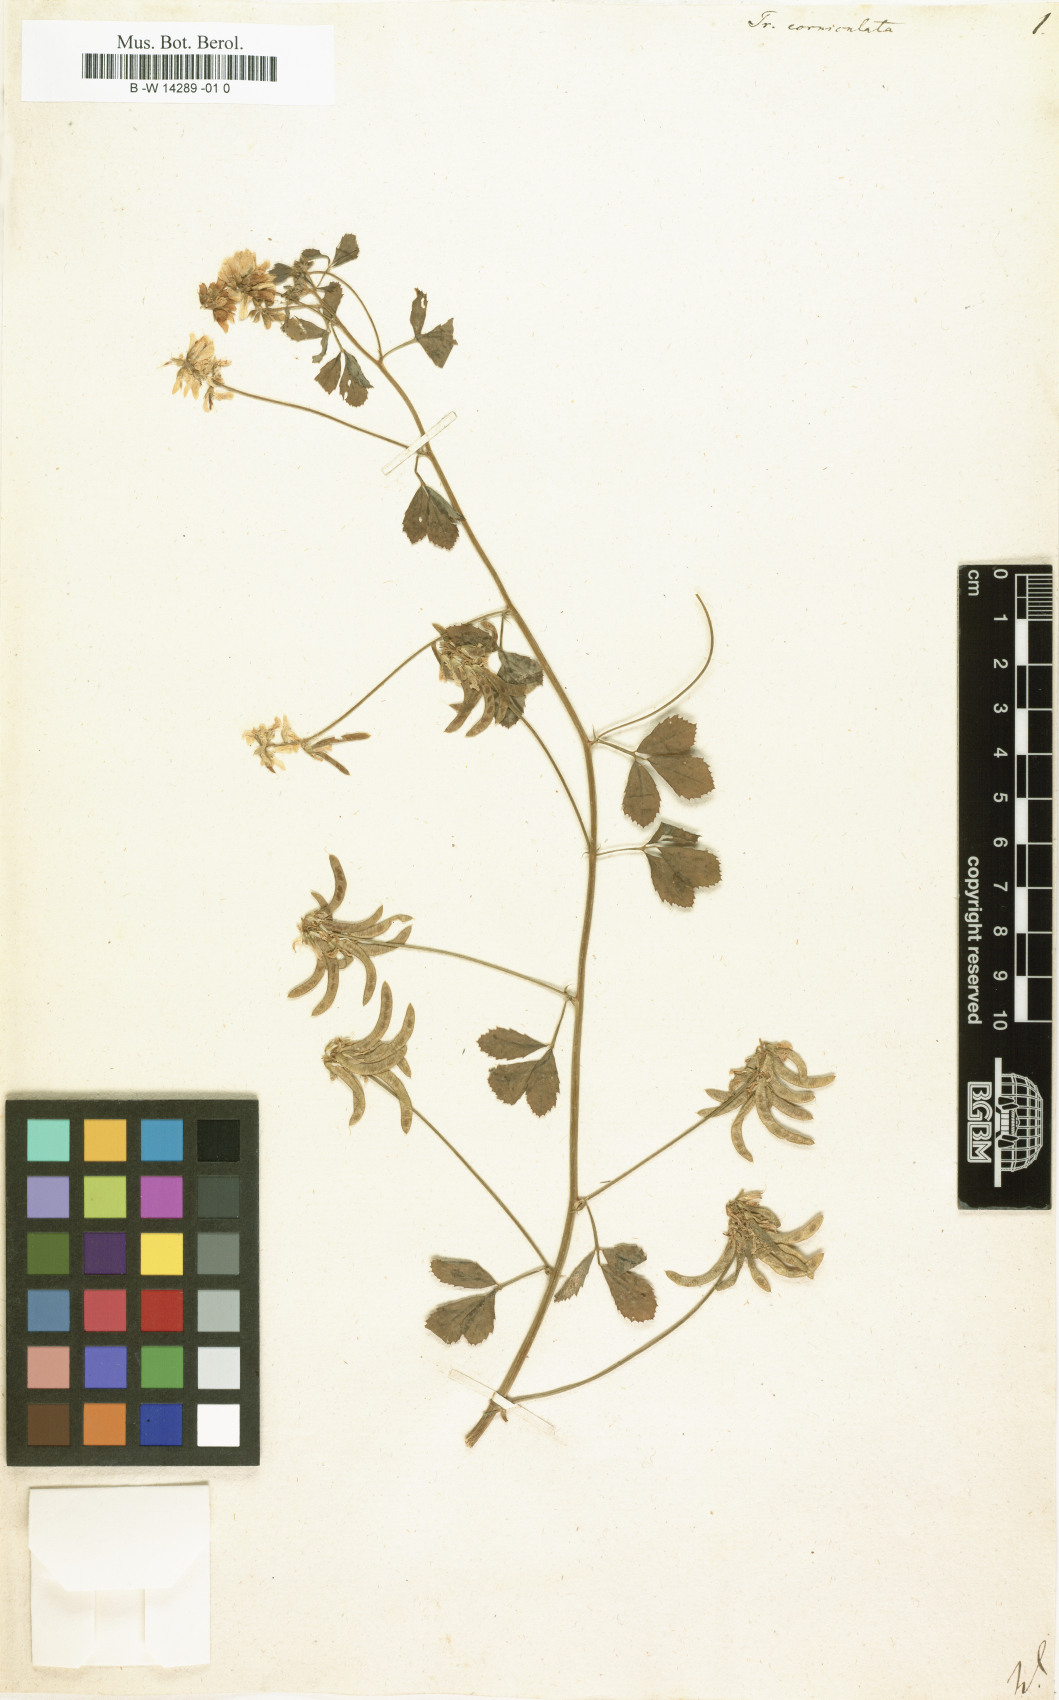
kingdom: Plantae
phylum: Tracheophyta
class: Magnoliopsida
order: Fabales
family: Fabaceae
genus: Trigonella
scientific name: Trigonella balansae
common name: Sickle-fruited fenugreek
